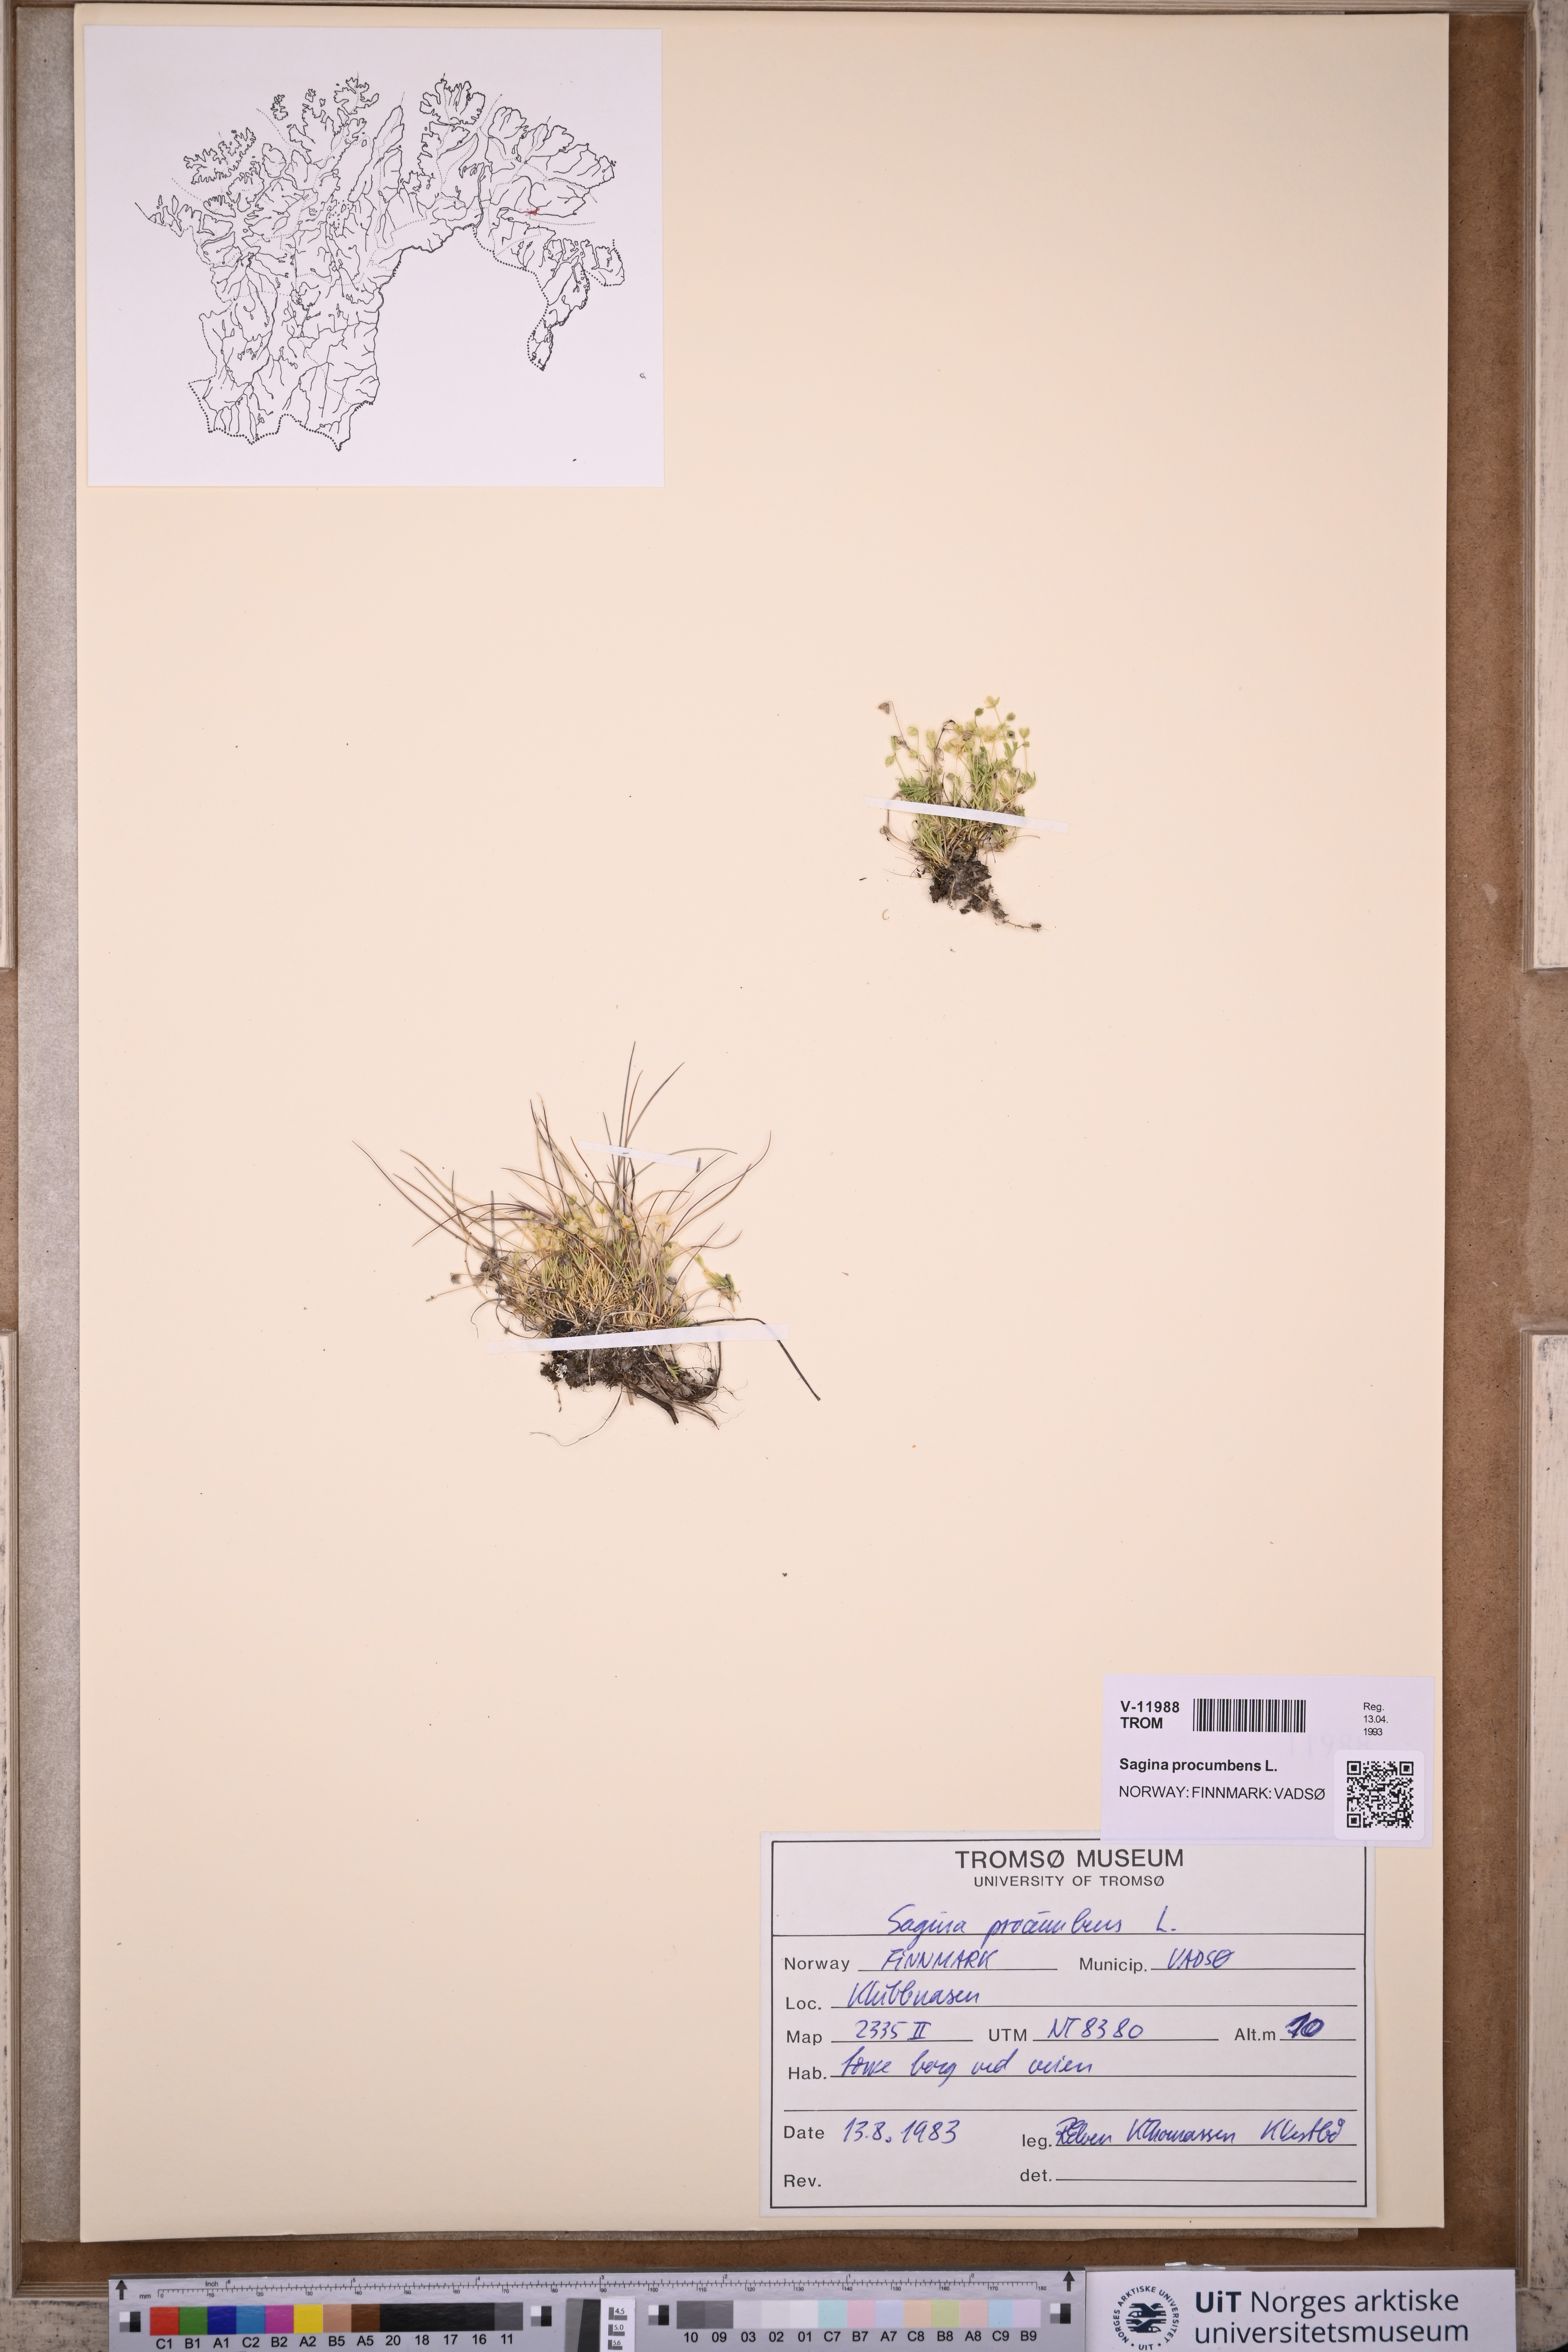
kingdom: Plantae
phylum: Tracheophyta
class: Magnoliopsida
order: Caryophyllales
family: Caryophyllaceae
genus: Sagina
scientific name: Sagina procumbens
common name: Procumbent pearlwort
